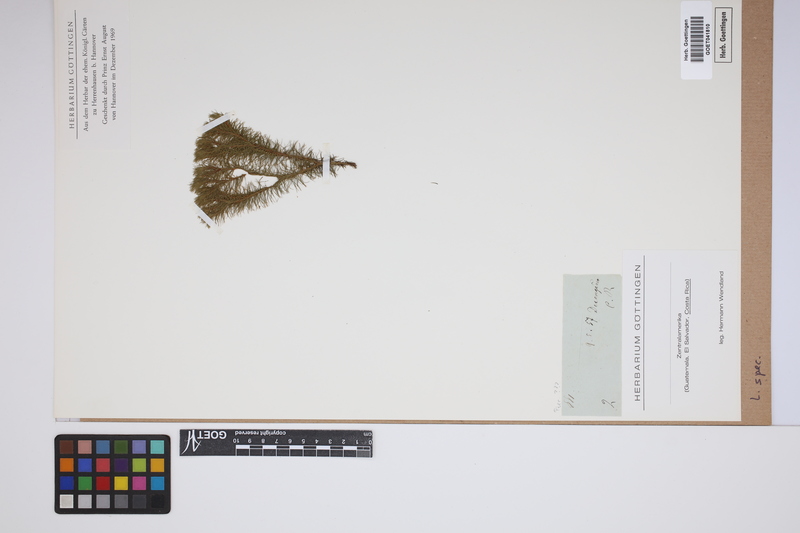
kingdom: Plantae
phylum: Tracheophyta
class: Lycopodiopsida
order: Lycopodiales
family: Lycopodiaceae
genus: Lycopodium
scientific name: Lycopodium
